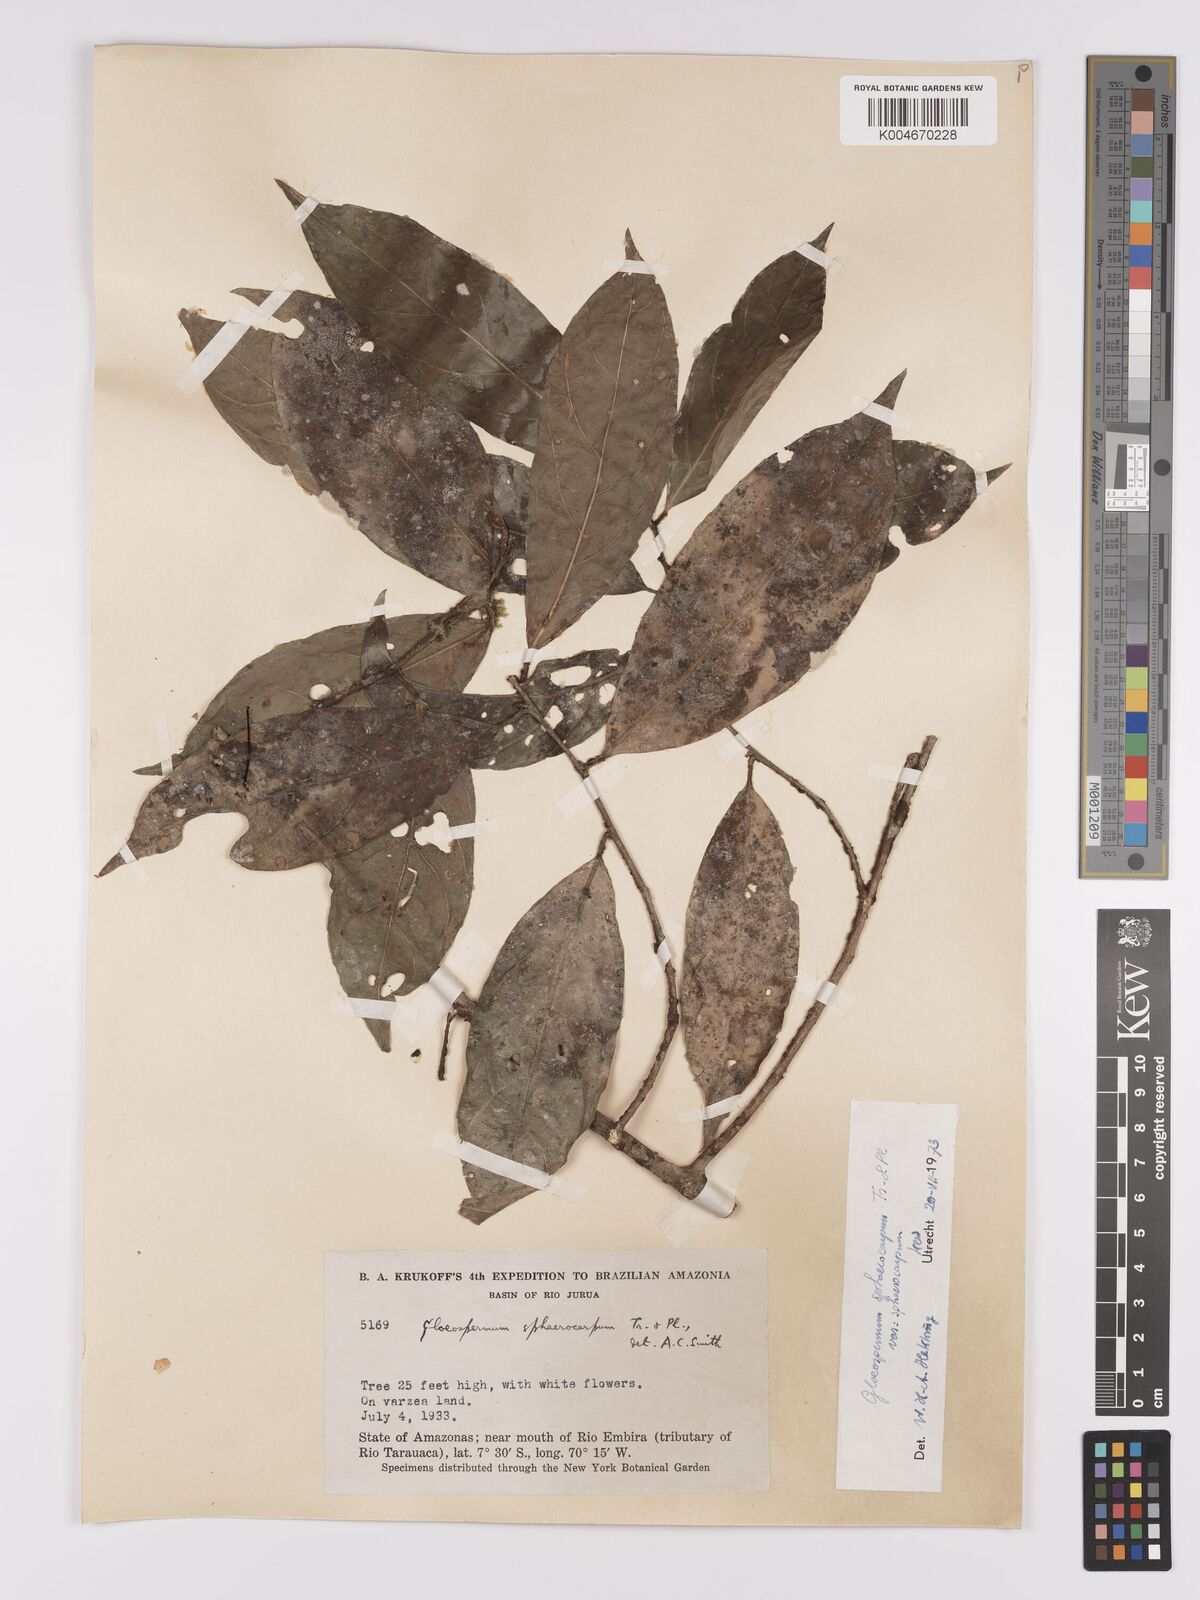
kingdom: Plantae
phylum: Tracheophyta
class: Magnoliopsida
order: Malpighiales
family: Violaceae
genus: Gloeospermum
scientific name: Gloeospermum sphaerocarpum
